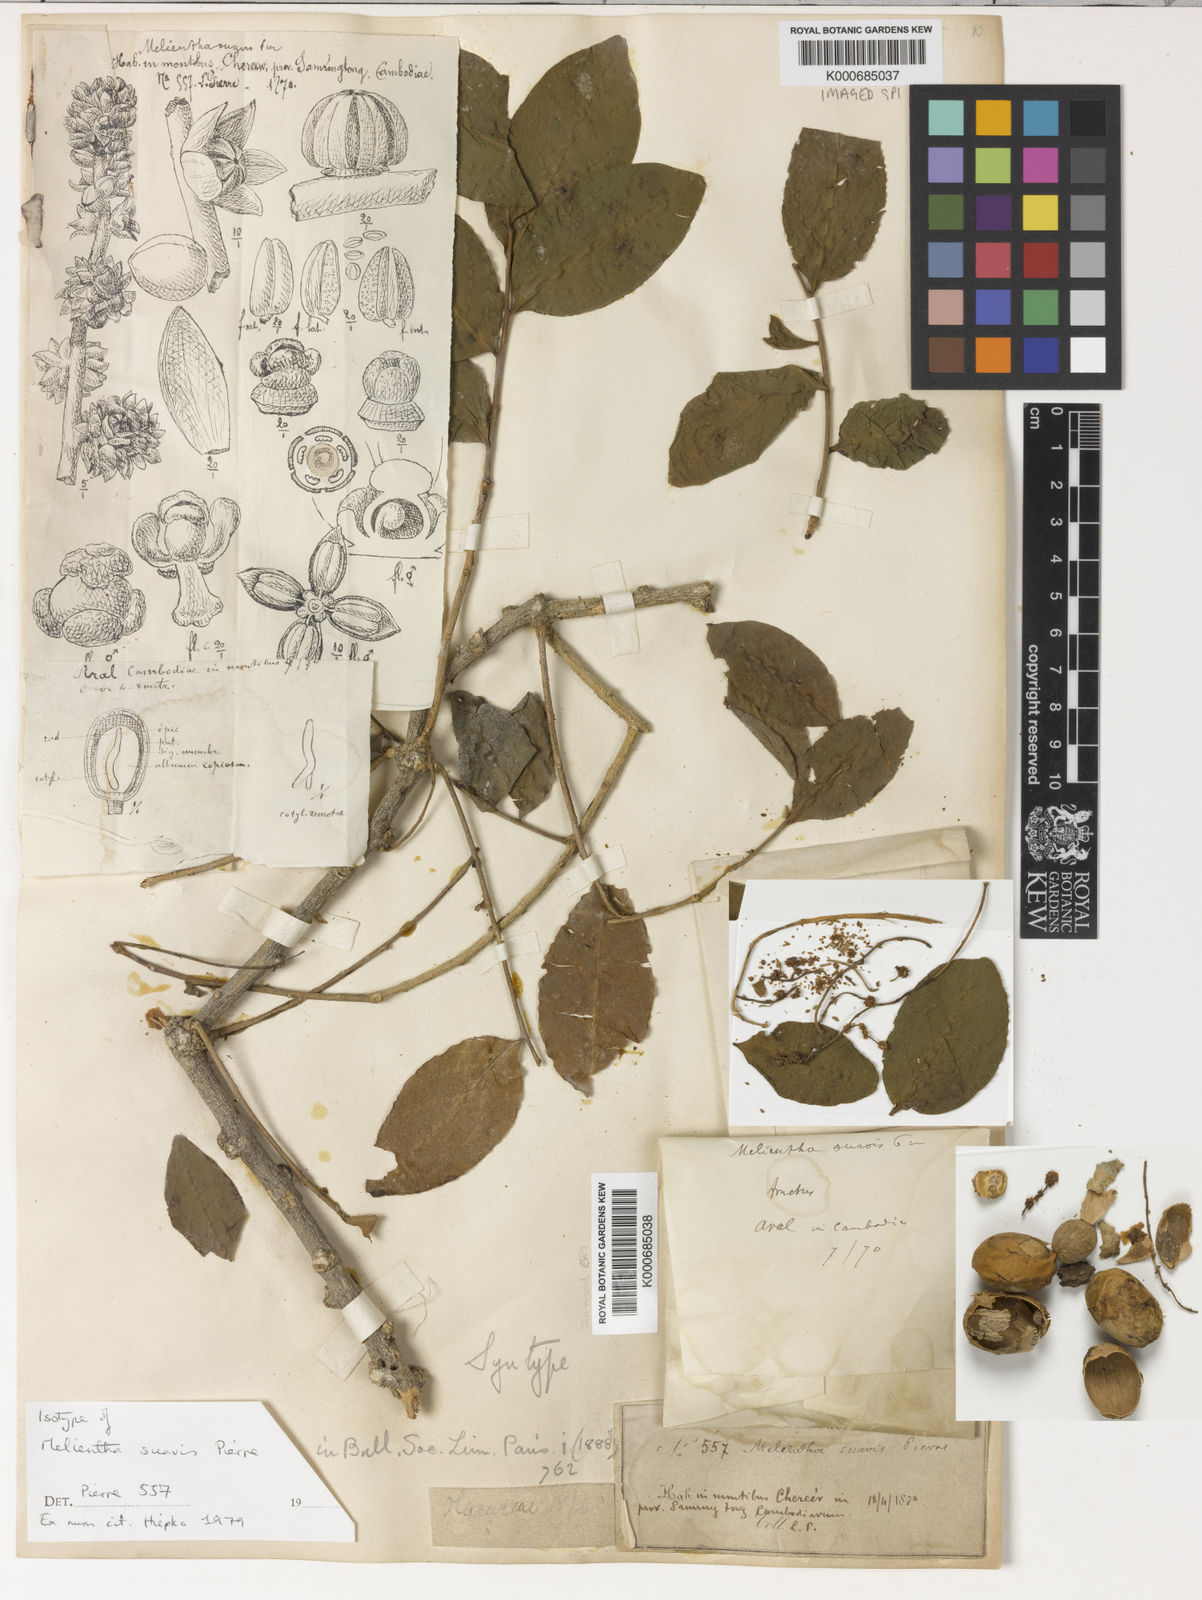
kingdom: Plantae
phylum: Tracheophyta
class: Magnoliopsida
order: Santalales
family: Opiliaceae
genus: Melientha
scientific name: Melientha suavis
